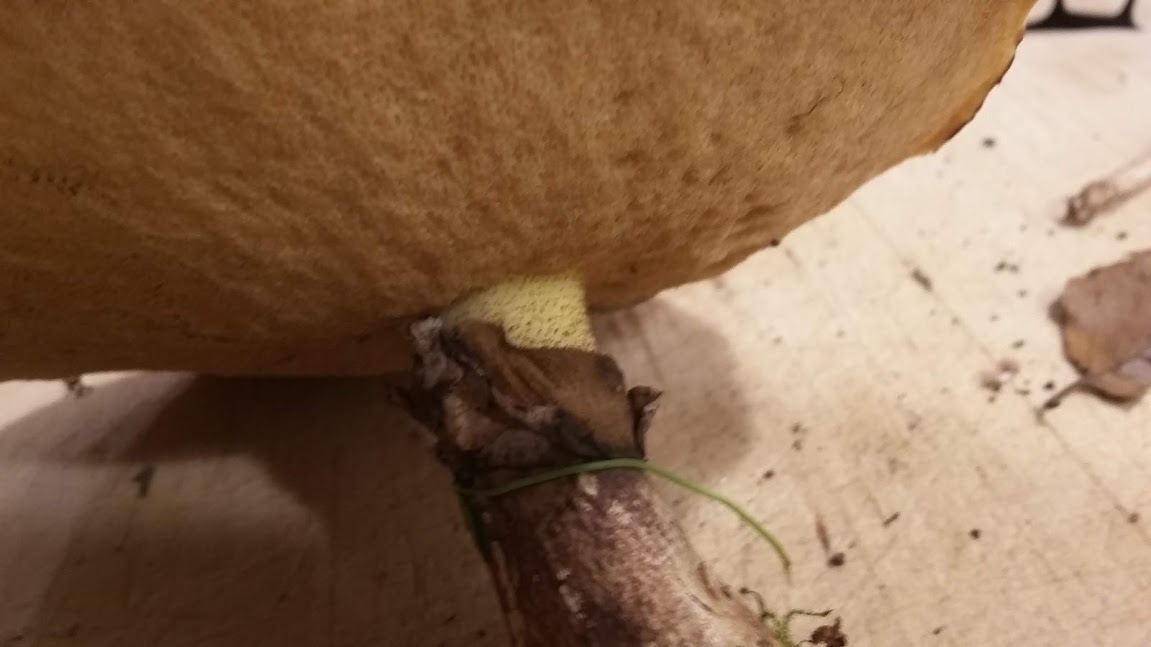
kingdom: Fungi
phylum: Basidiomycota
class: Agaricomycetes
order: Boletales
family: Suillaceae
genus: Suillus
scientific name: Suillus luteus
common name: brungul slimrørhat
